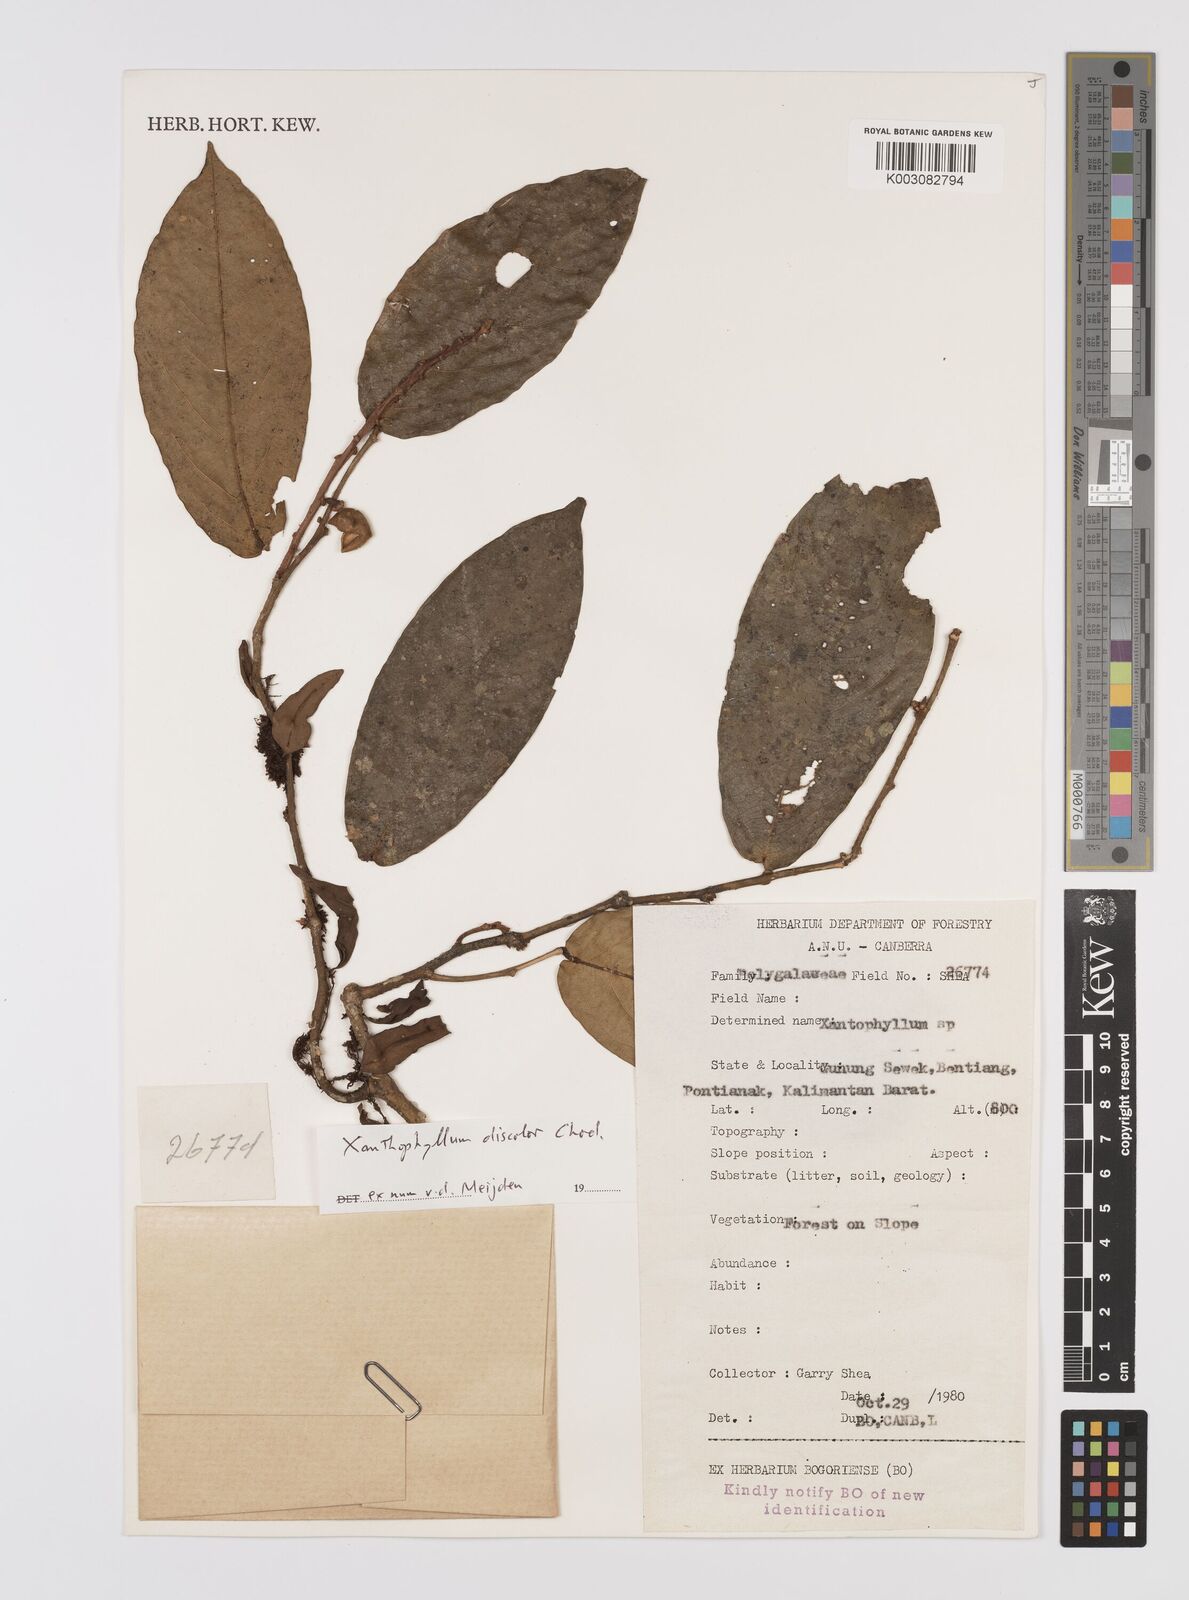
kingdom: Plantae
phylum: Tracheophyta
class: Magnoliopsida
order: Fabales
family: Polygalaceae
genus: Xanthophyllum
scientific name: Xanthophyllum discolor
